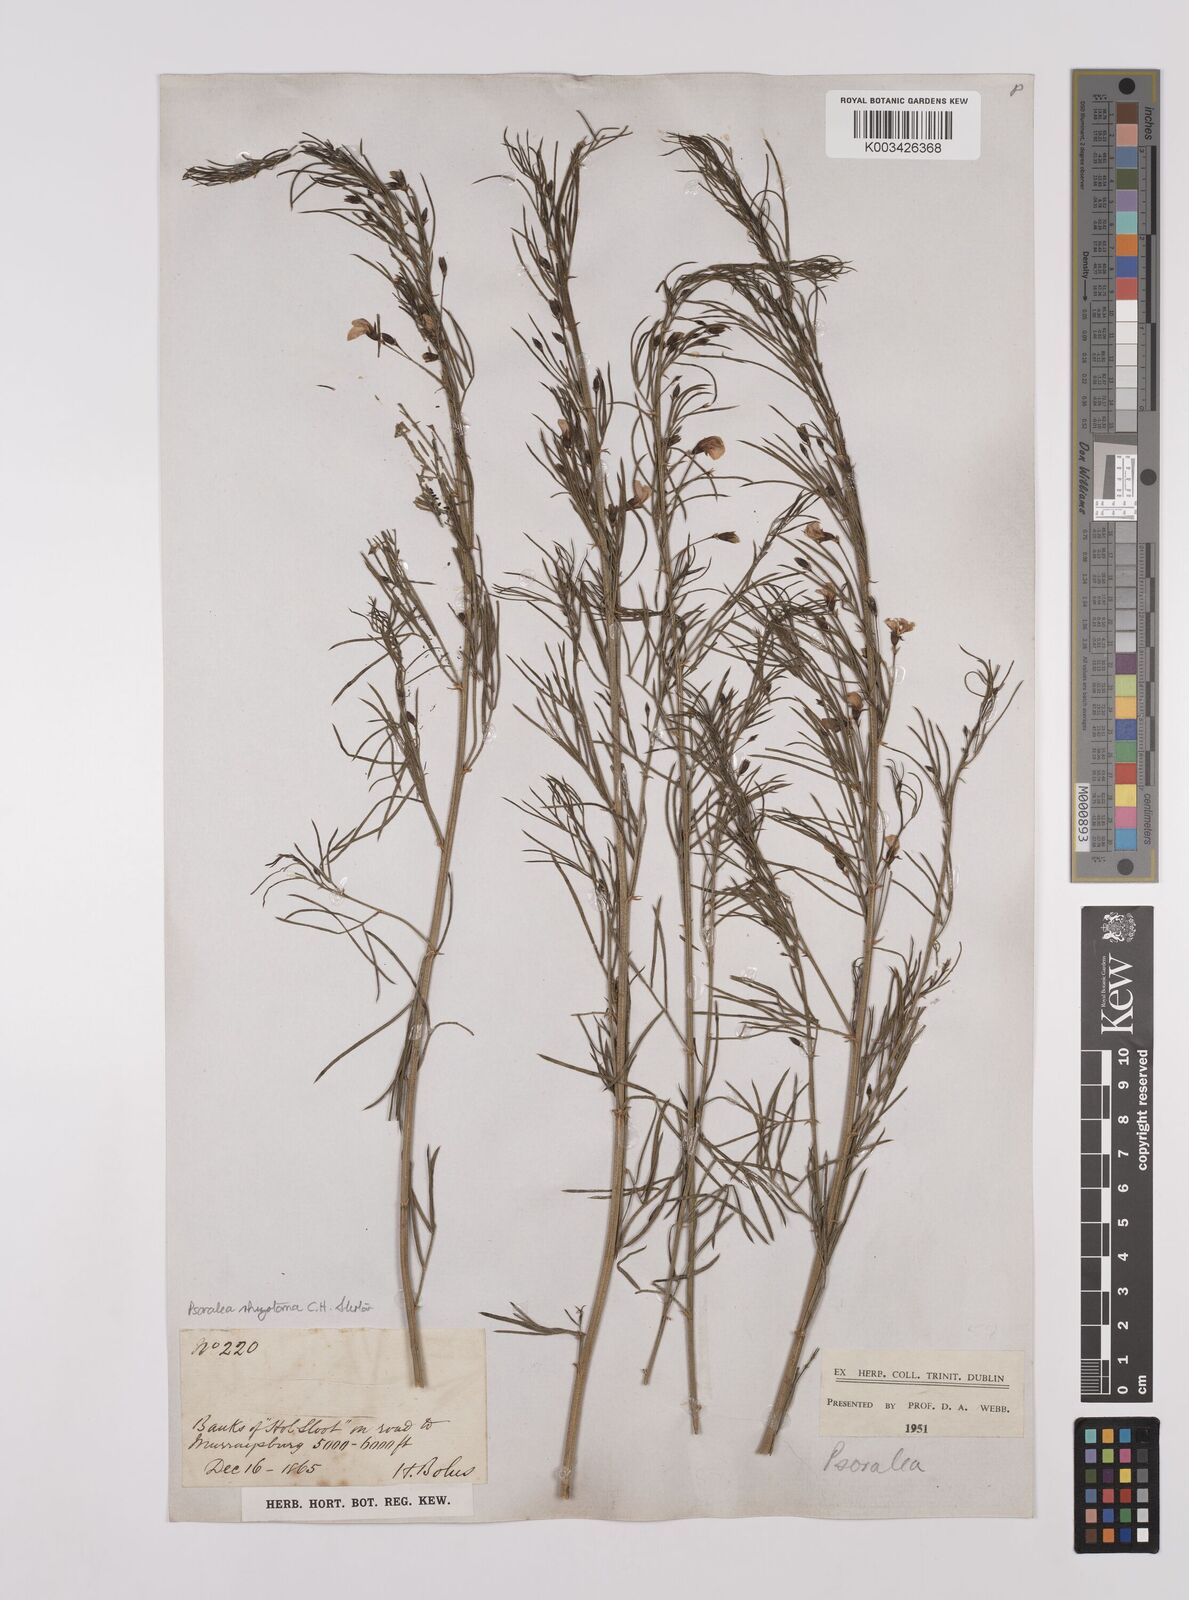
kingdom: Plantae
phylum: Tracheophyta
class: Magnoliopsida
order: Fabales
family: Fabaceae
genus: Psoralea
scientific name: Psoralea rhizotoma
